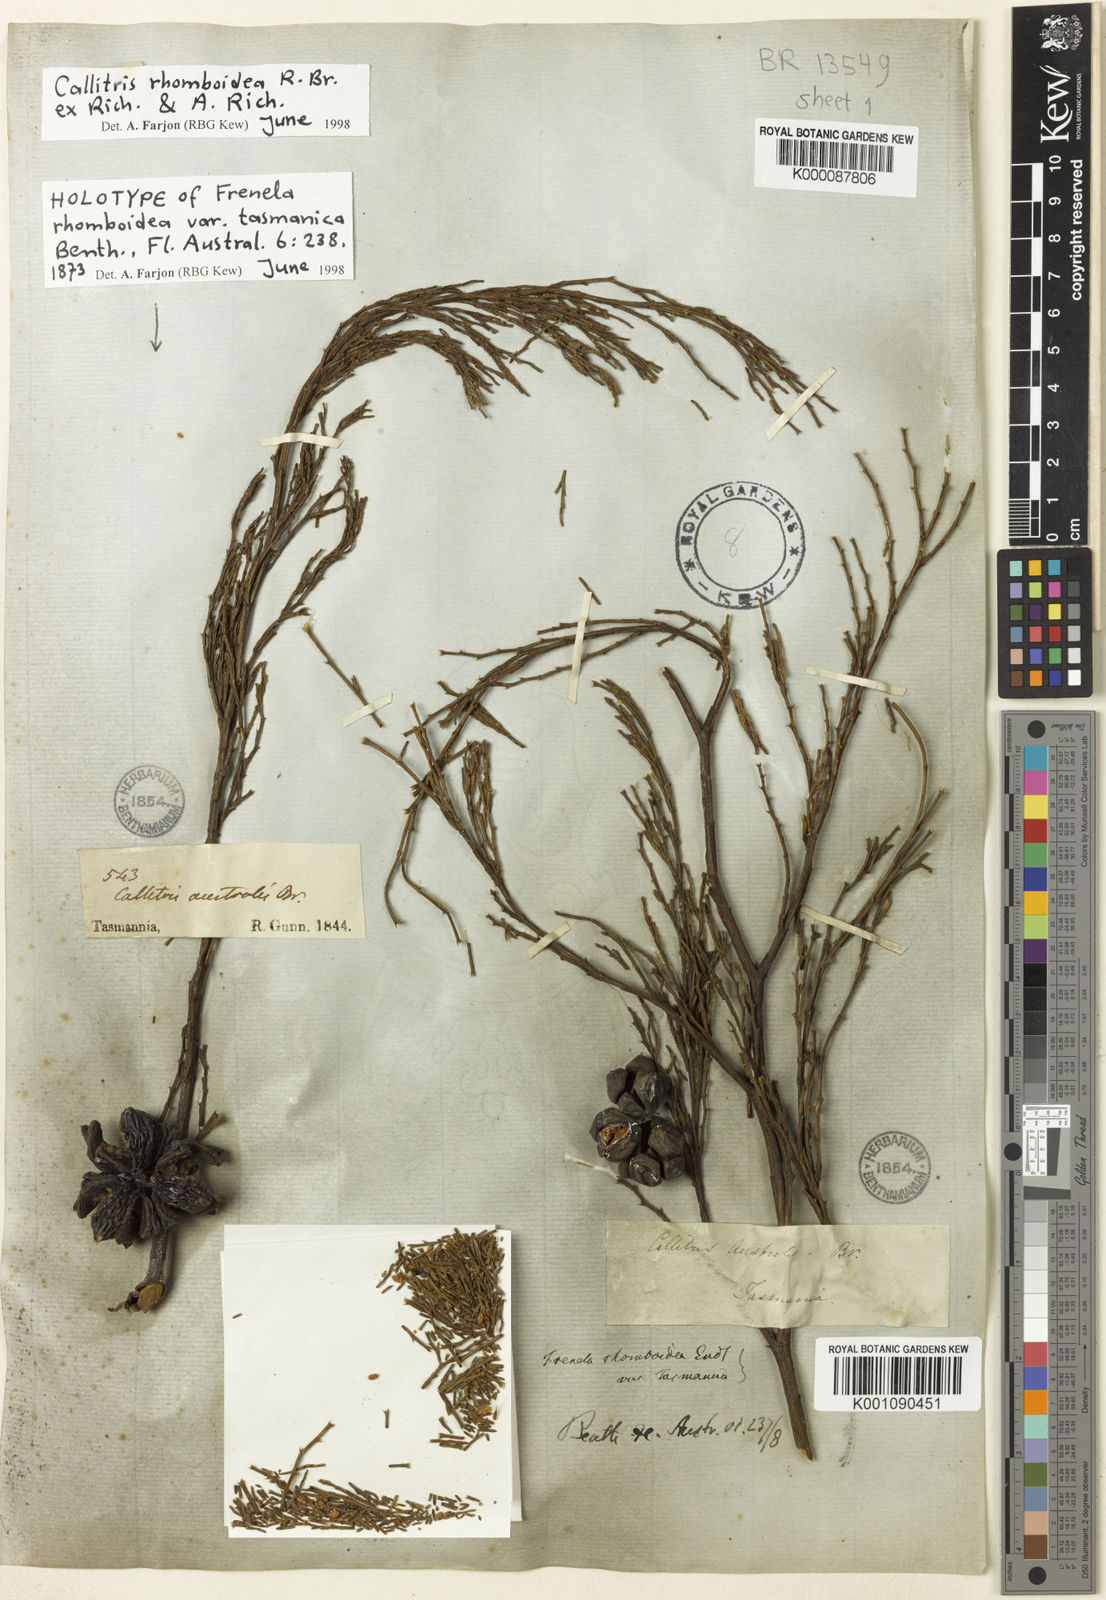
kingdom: Plantae
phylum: Tracheophyta
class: Pinopsida
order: Pinales
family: Cupressaceae
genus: Callitris
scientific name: Callitris rhomboidea
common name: Illawara mountain pine
